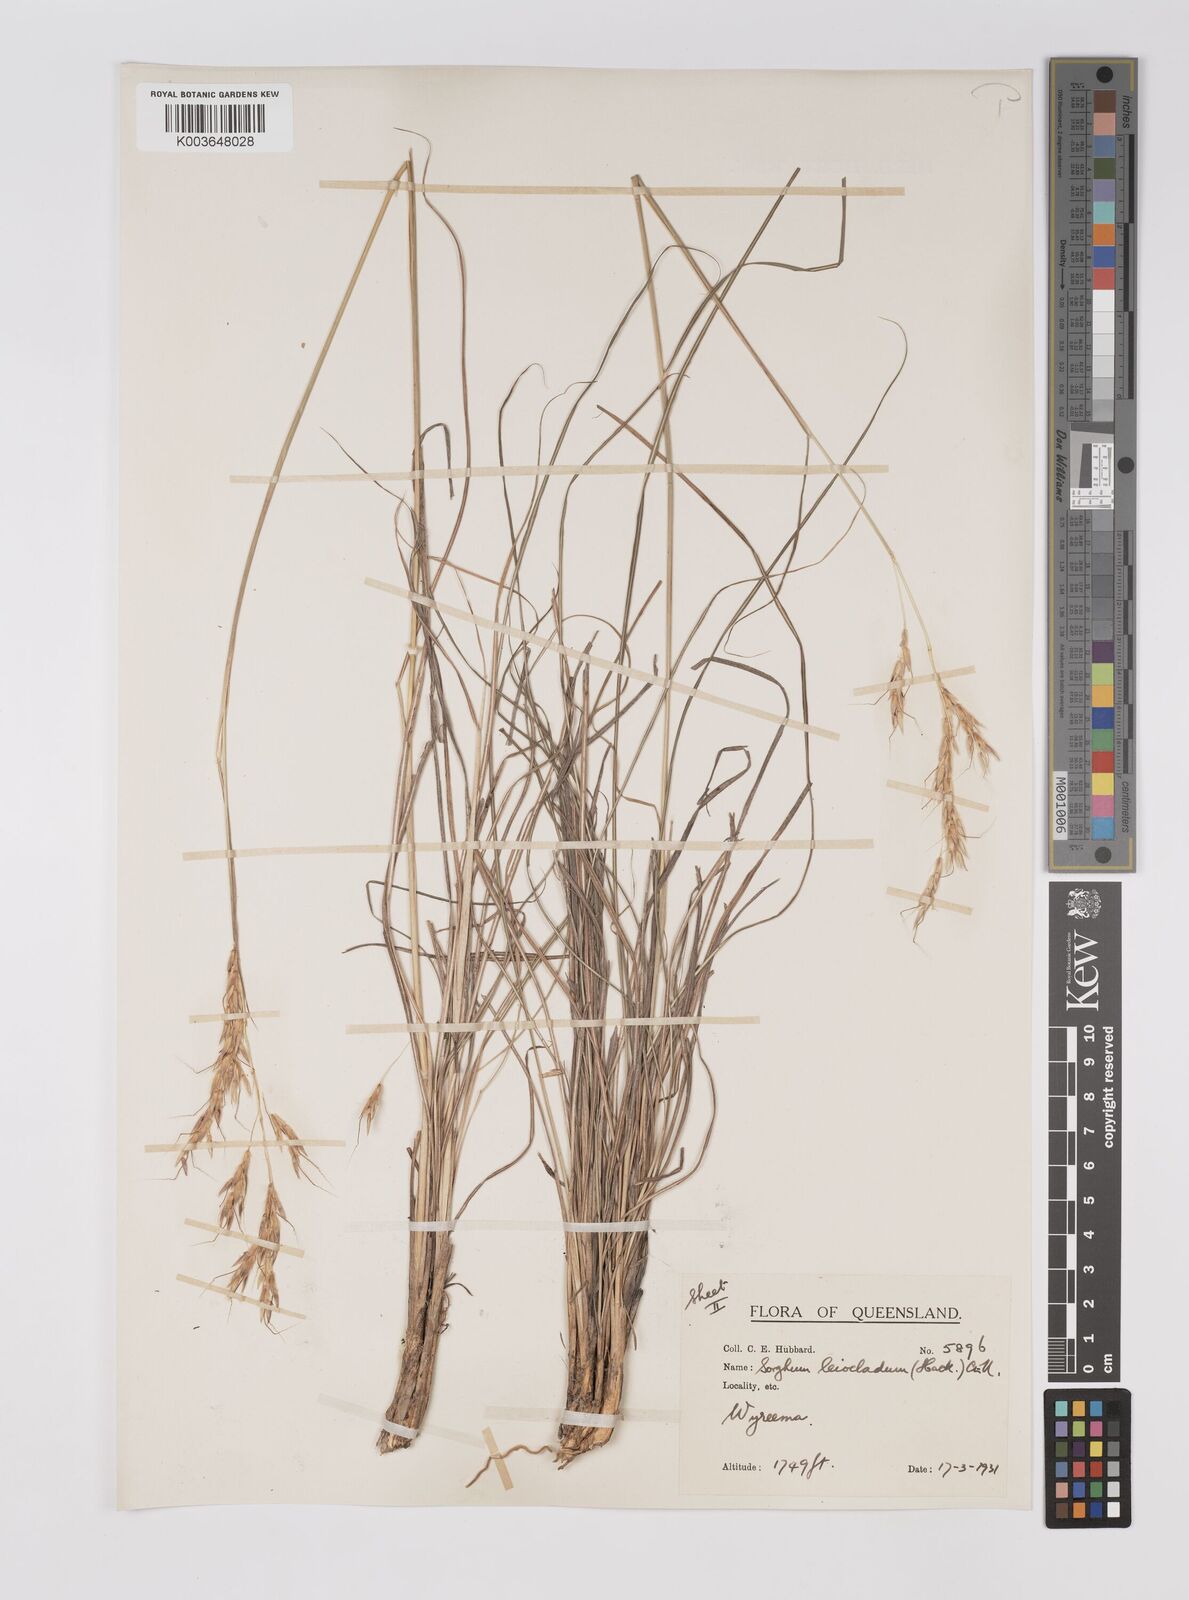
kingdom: Plantae
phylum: Tracheophyta
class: Liliopsida
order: Poales
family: Poaceae
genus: Sarga
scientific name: Sarga leioclada
